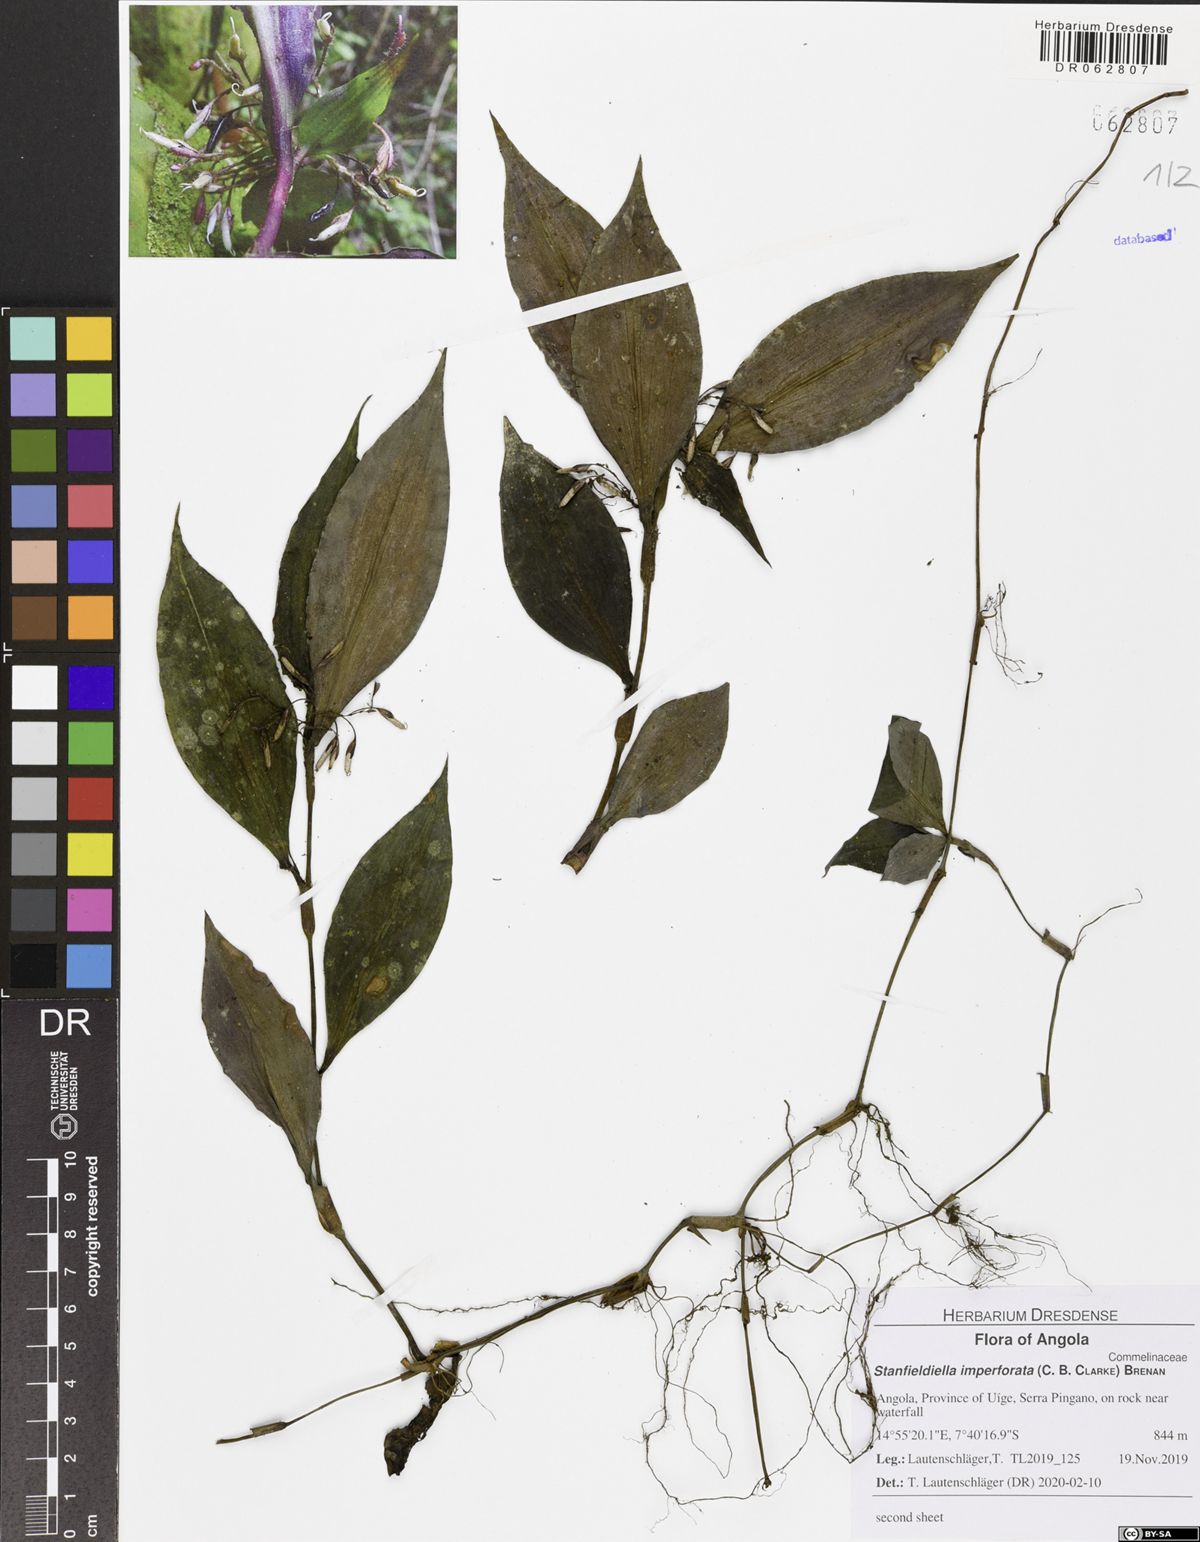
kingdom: Plantae
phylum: Tracheophyta
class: Liliopsida
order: Commelinales
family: Commelinaceae
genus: Stanfieldiella
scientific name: Stanfieldiella imperforata
